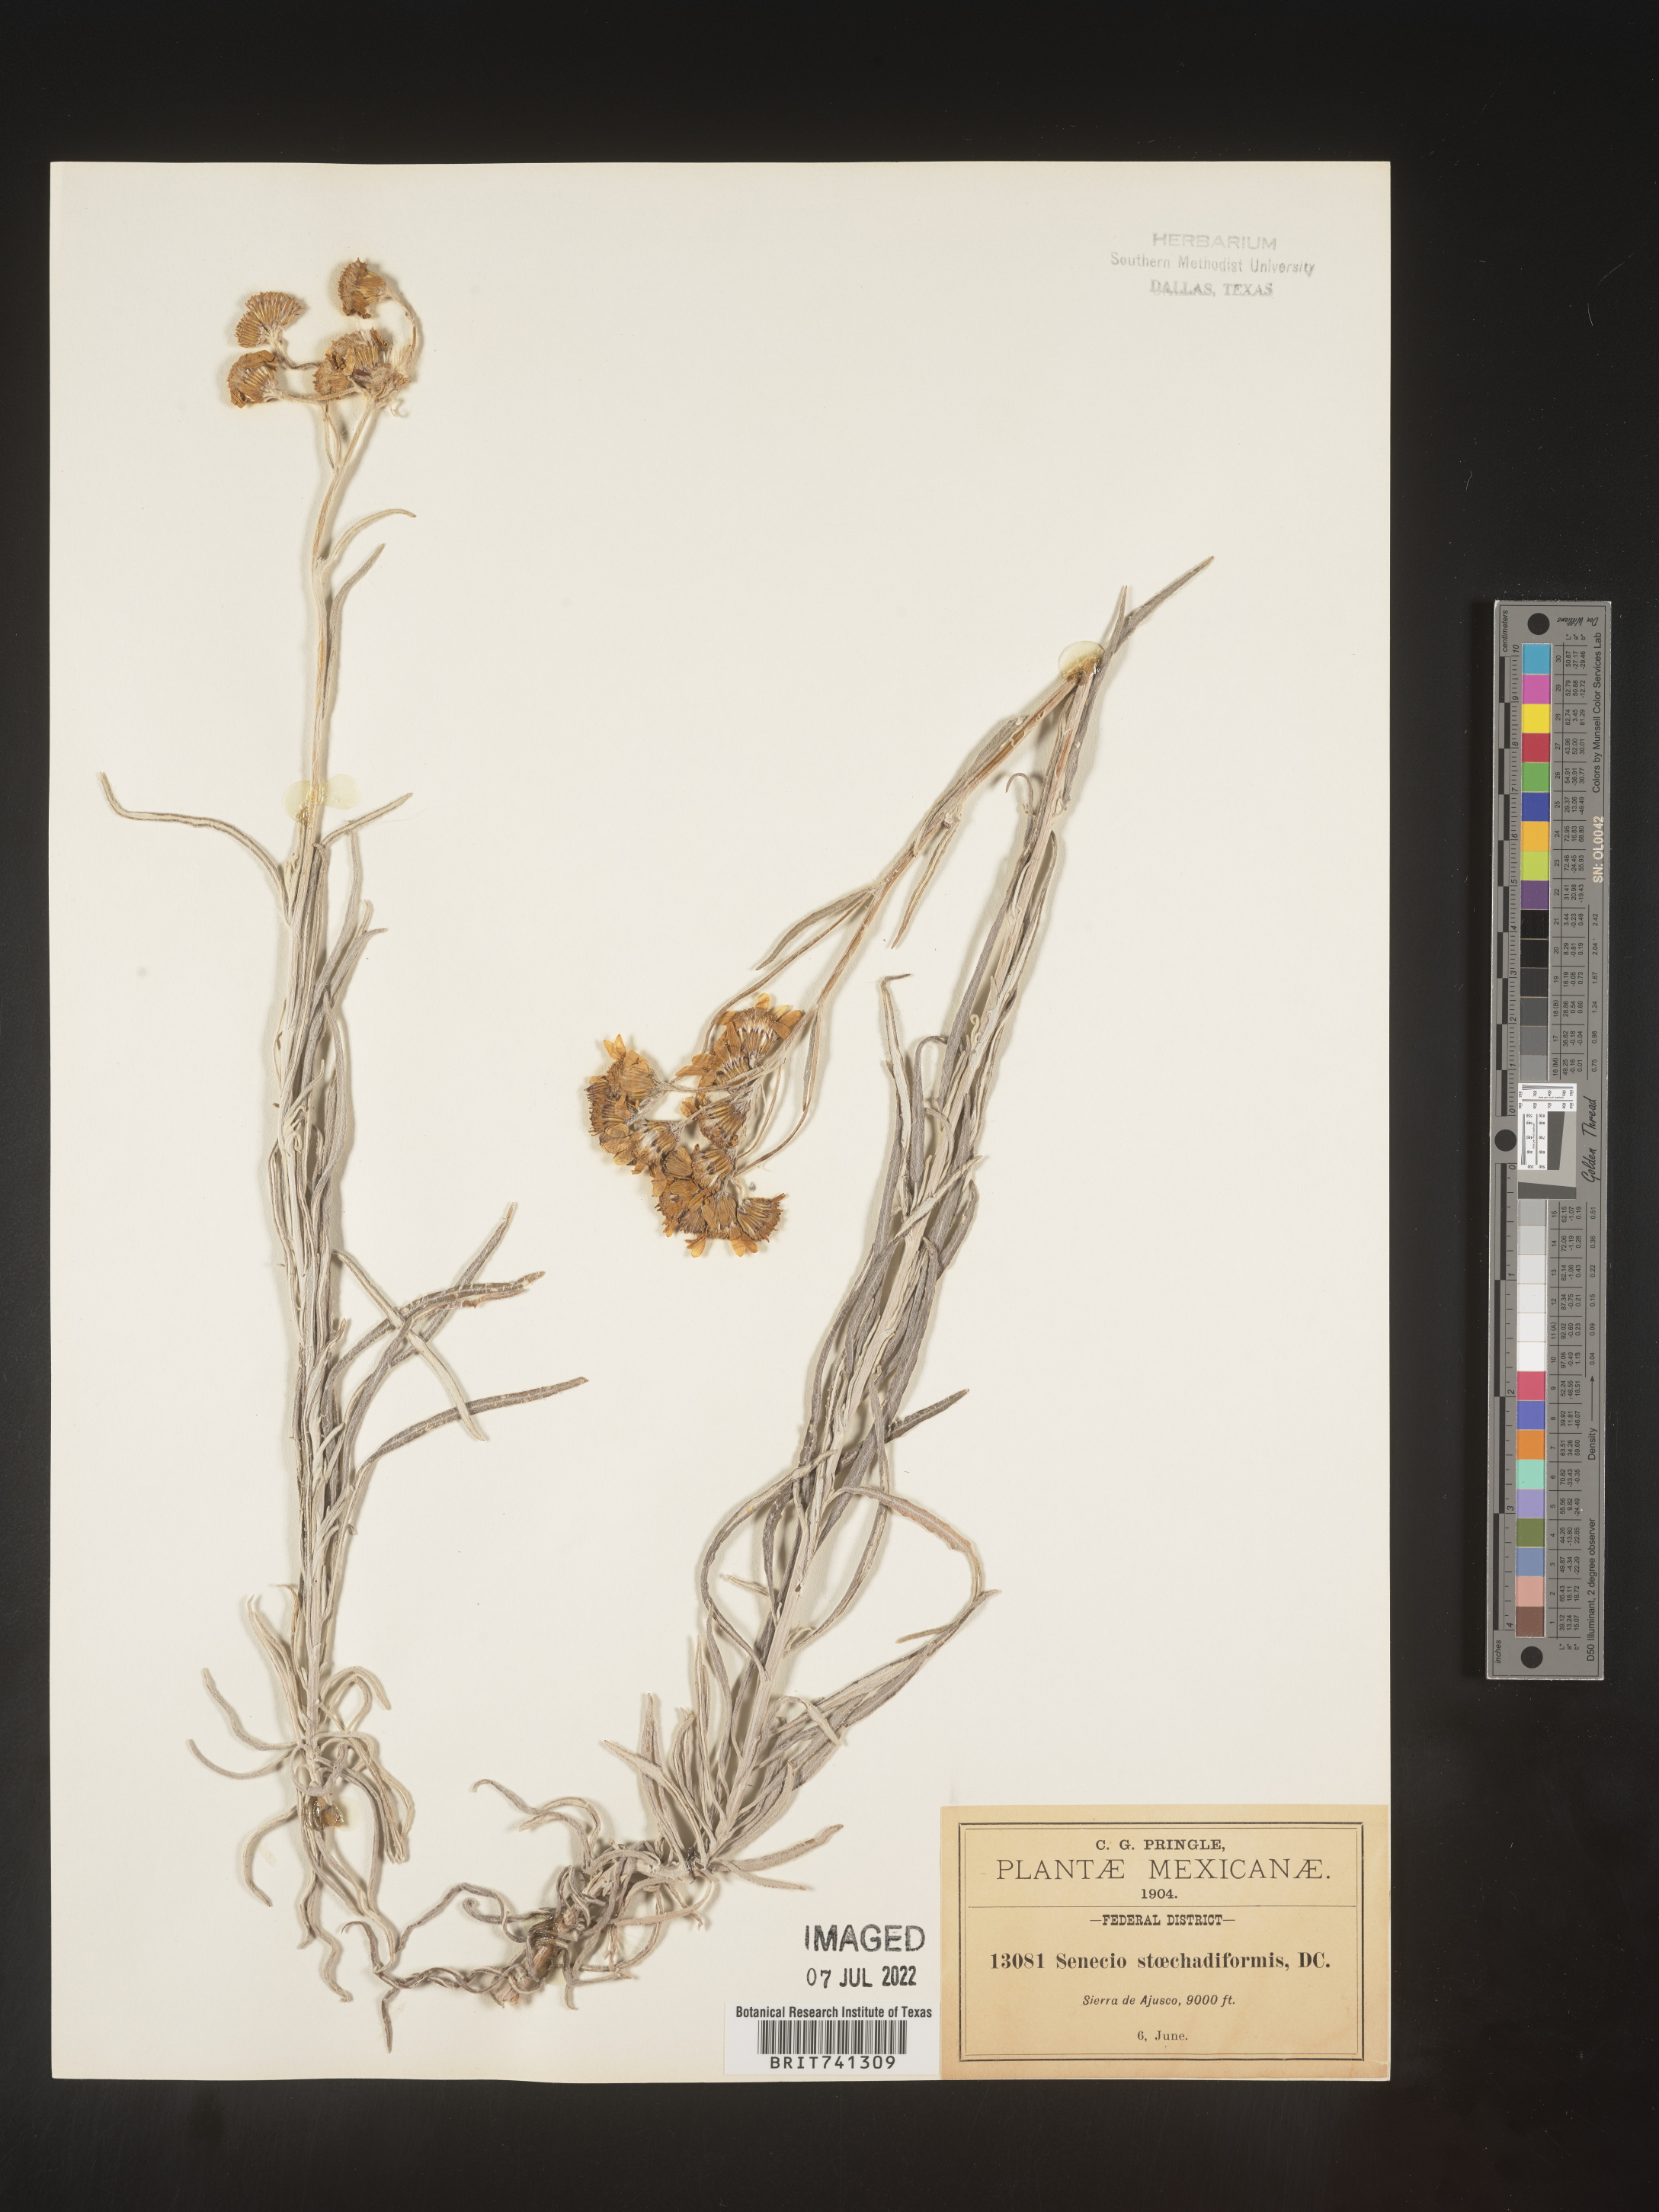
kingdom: Plantae
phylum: Tracheophyta
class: Magnoliopsida
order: Asterales
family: Asteraceae
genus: Senecio
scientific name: Senecio stoechadiformis
